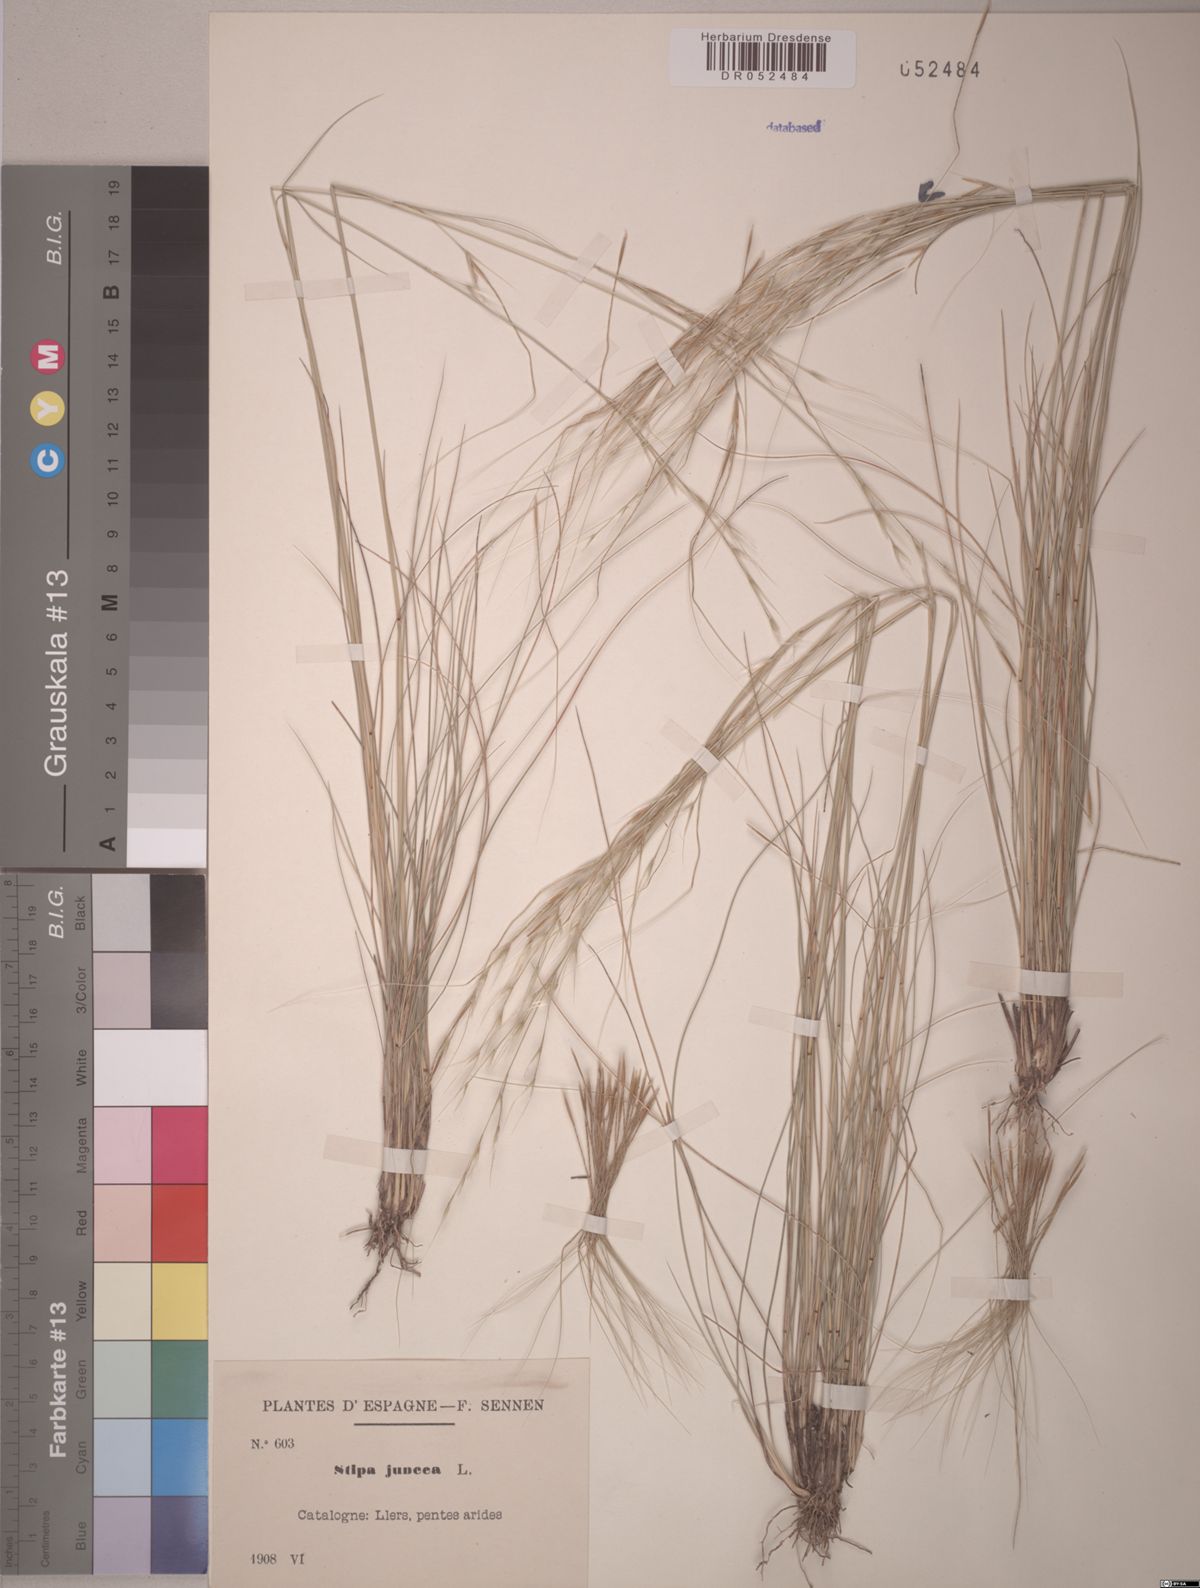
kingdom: Plantae
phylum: Tracheophyta
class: Liliopsida
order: Poales
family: Poaceae
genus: Stipa
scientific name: Stipa juncea
